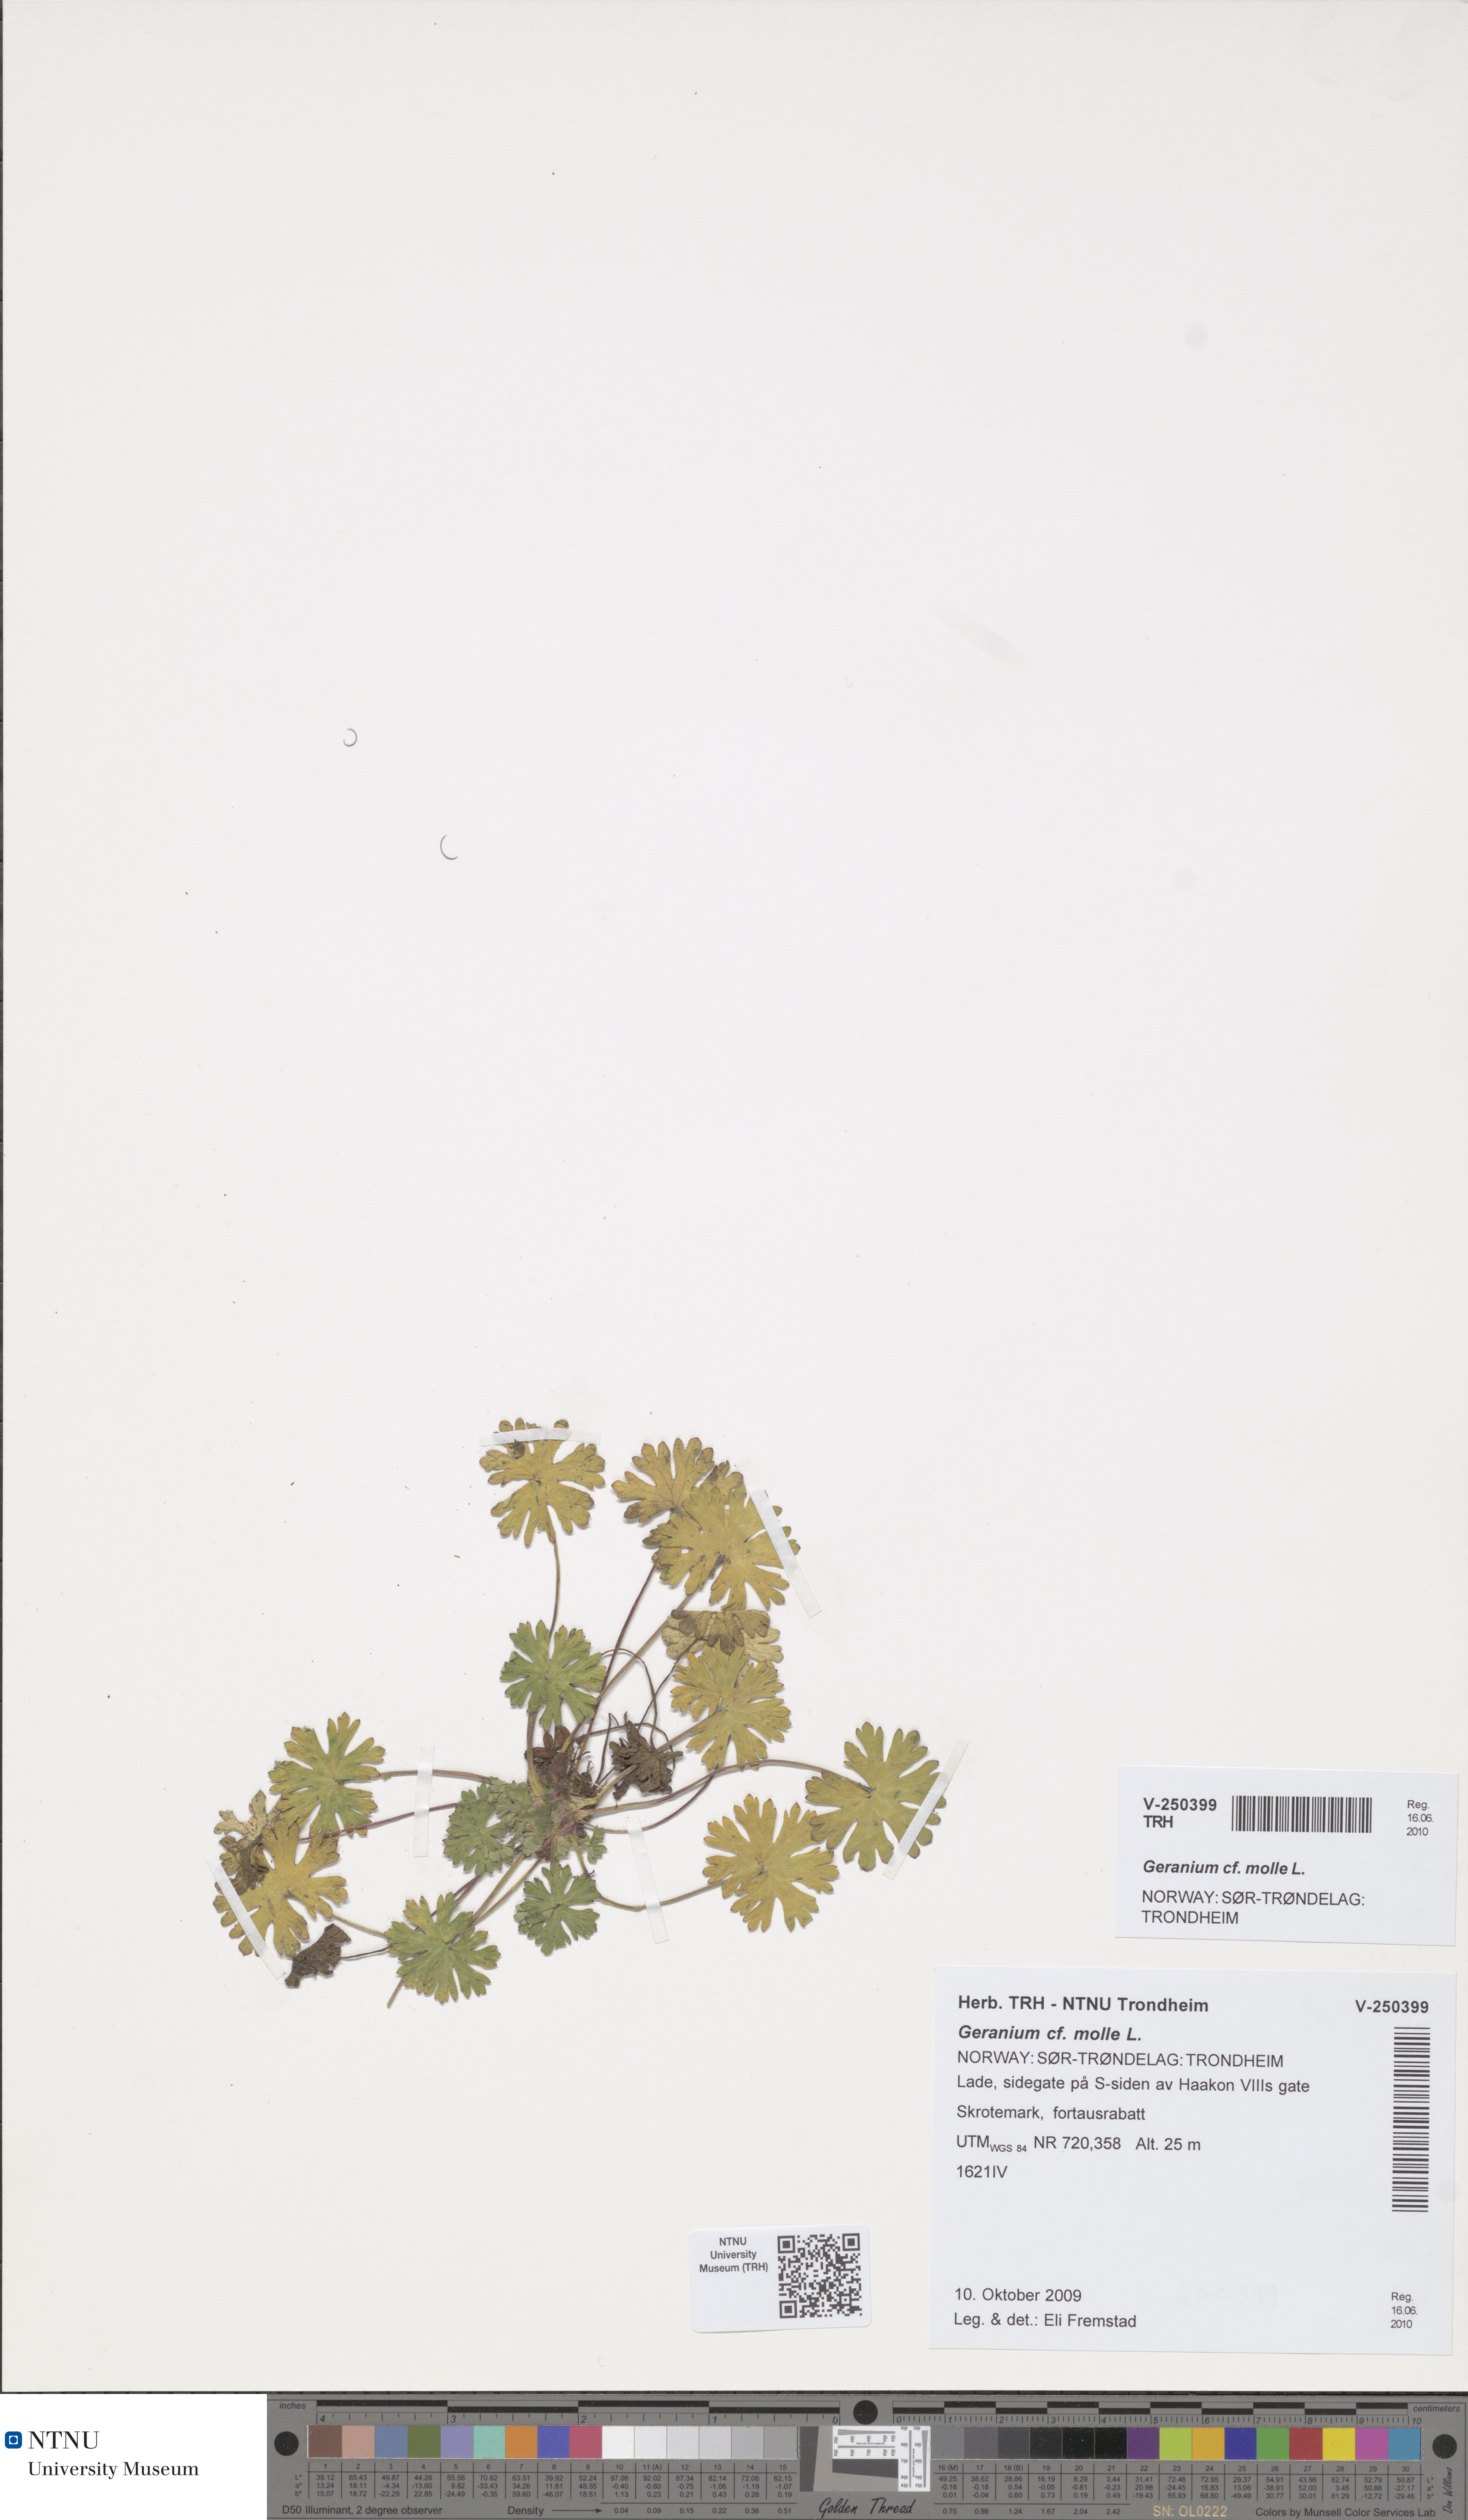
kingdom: Plantae
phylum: Tracheophyta
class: Magnoliopsida
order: Geraniales
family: Geraniaceae
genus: Geranium
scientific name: Geranium pusillum
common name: Small geranium
